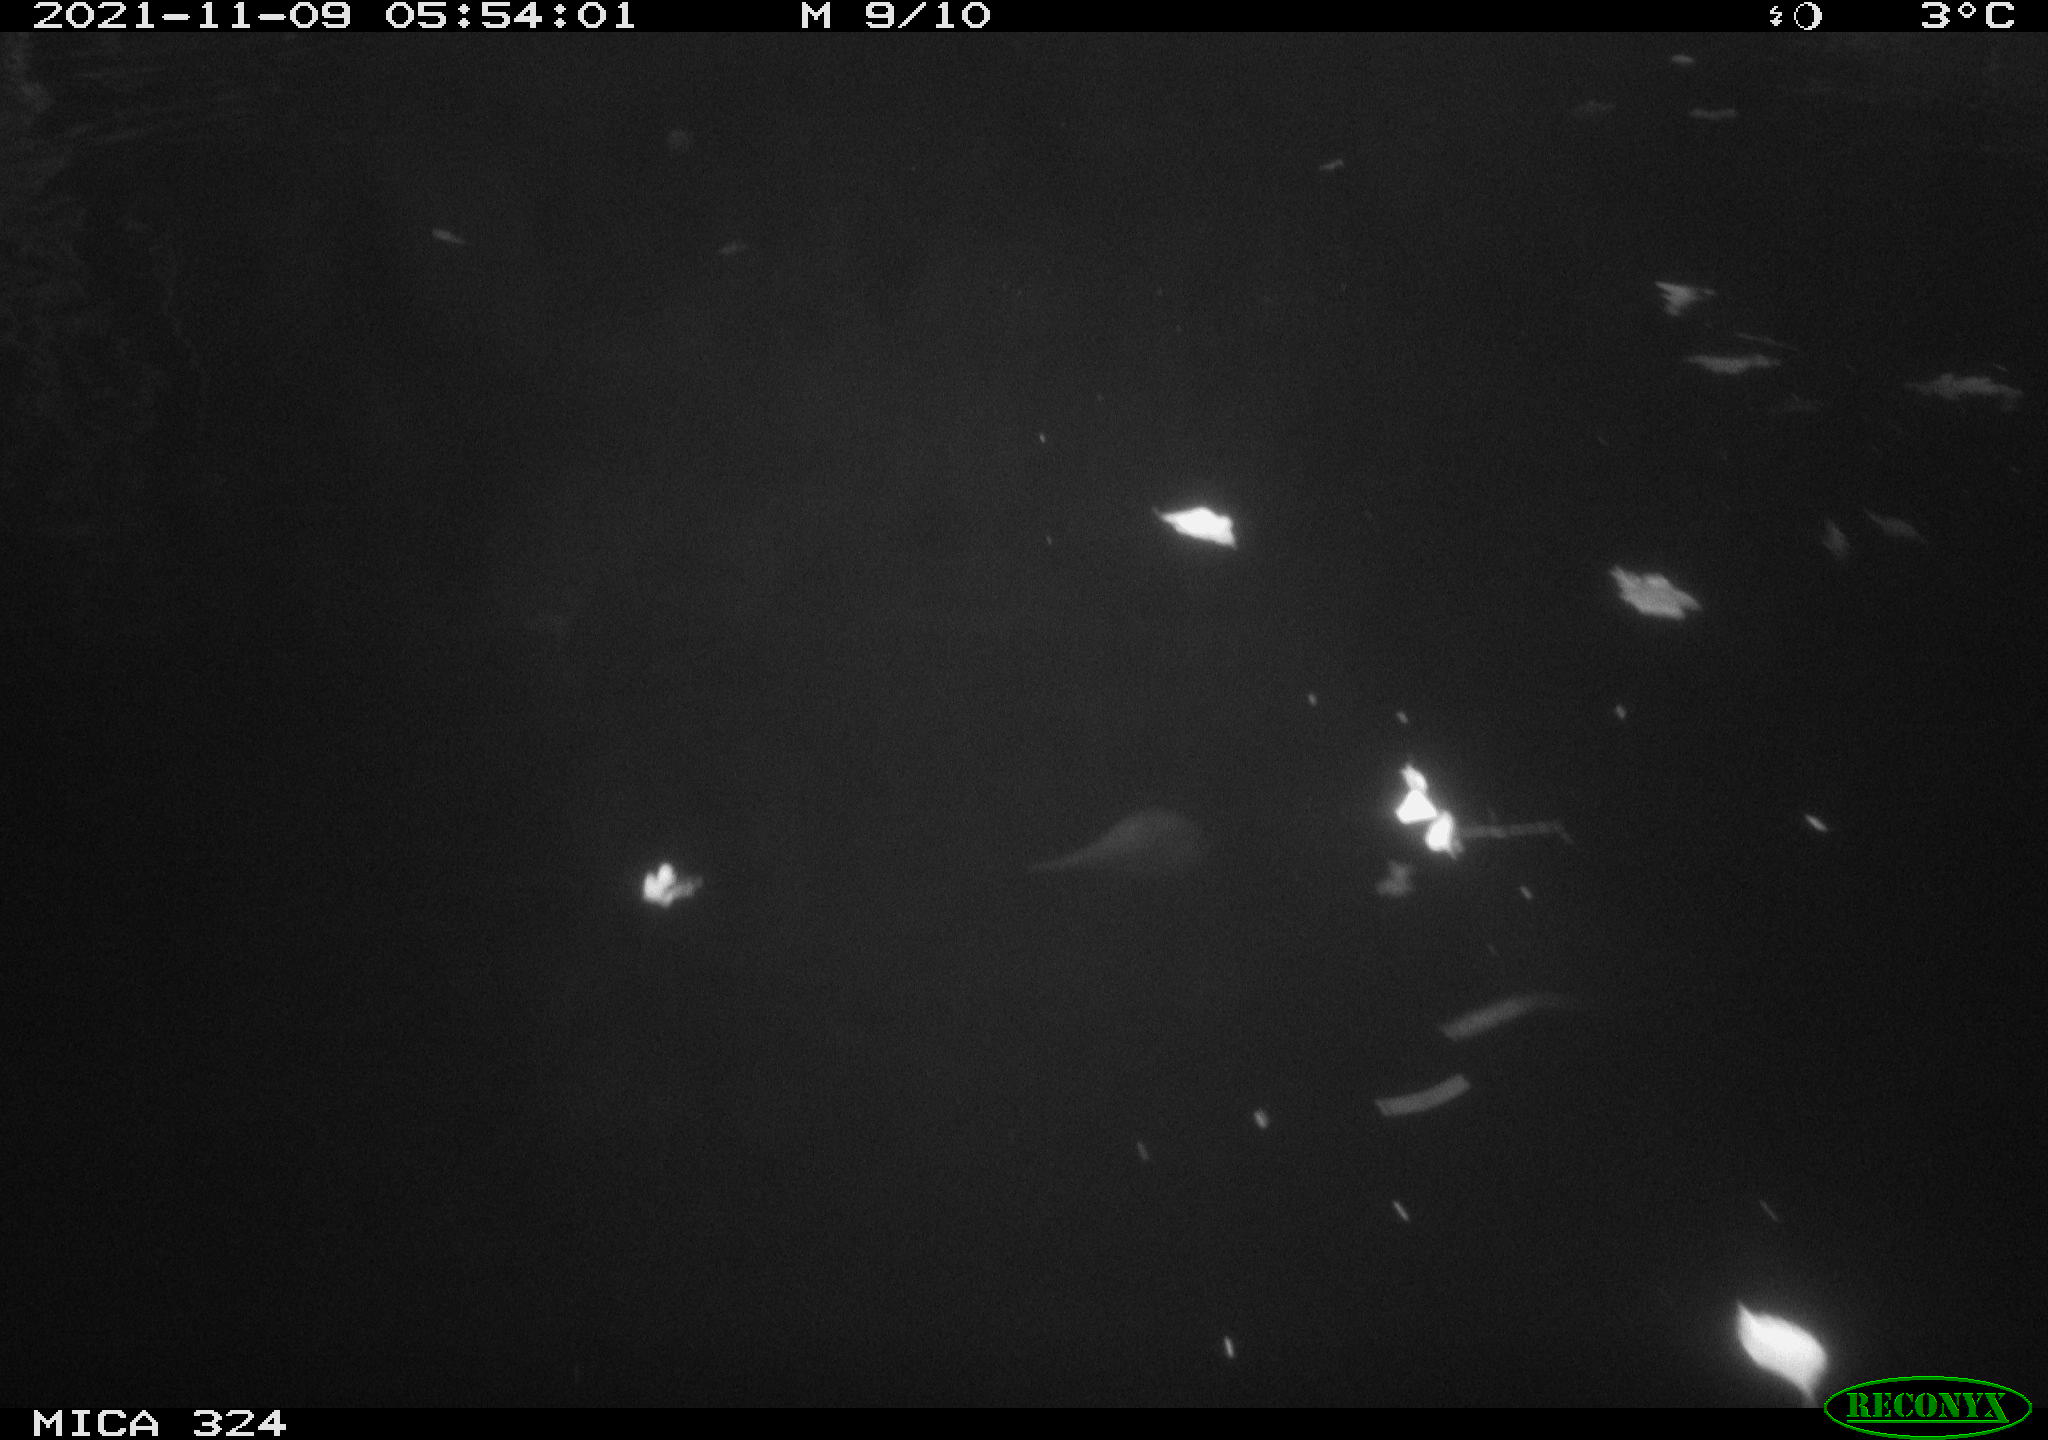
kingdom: Animalia
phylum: Chordata
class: Mammalia
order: Rodentia
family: Cricetidae
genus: Ondatra
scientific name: Ondatra zibethicus
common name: Muskrat
